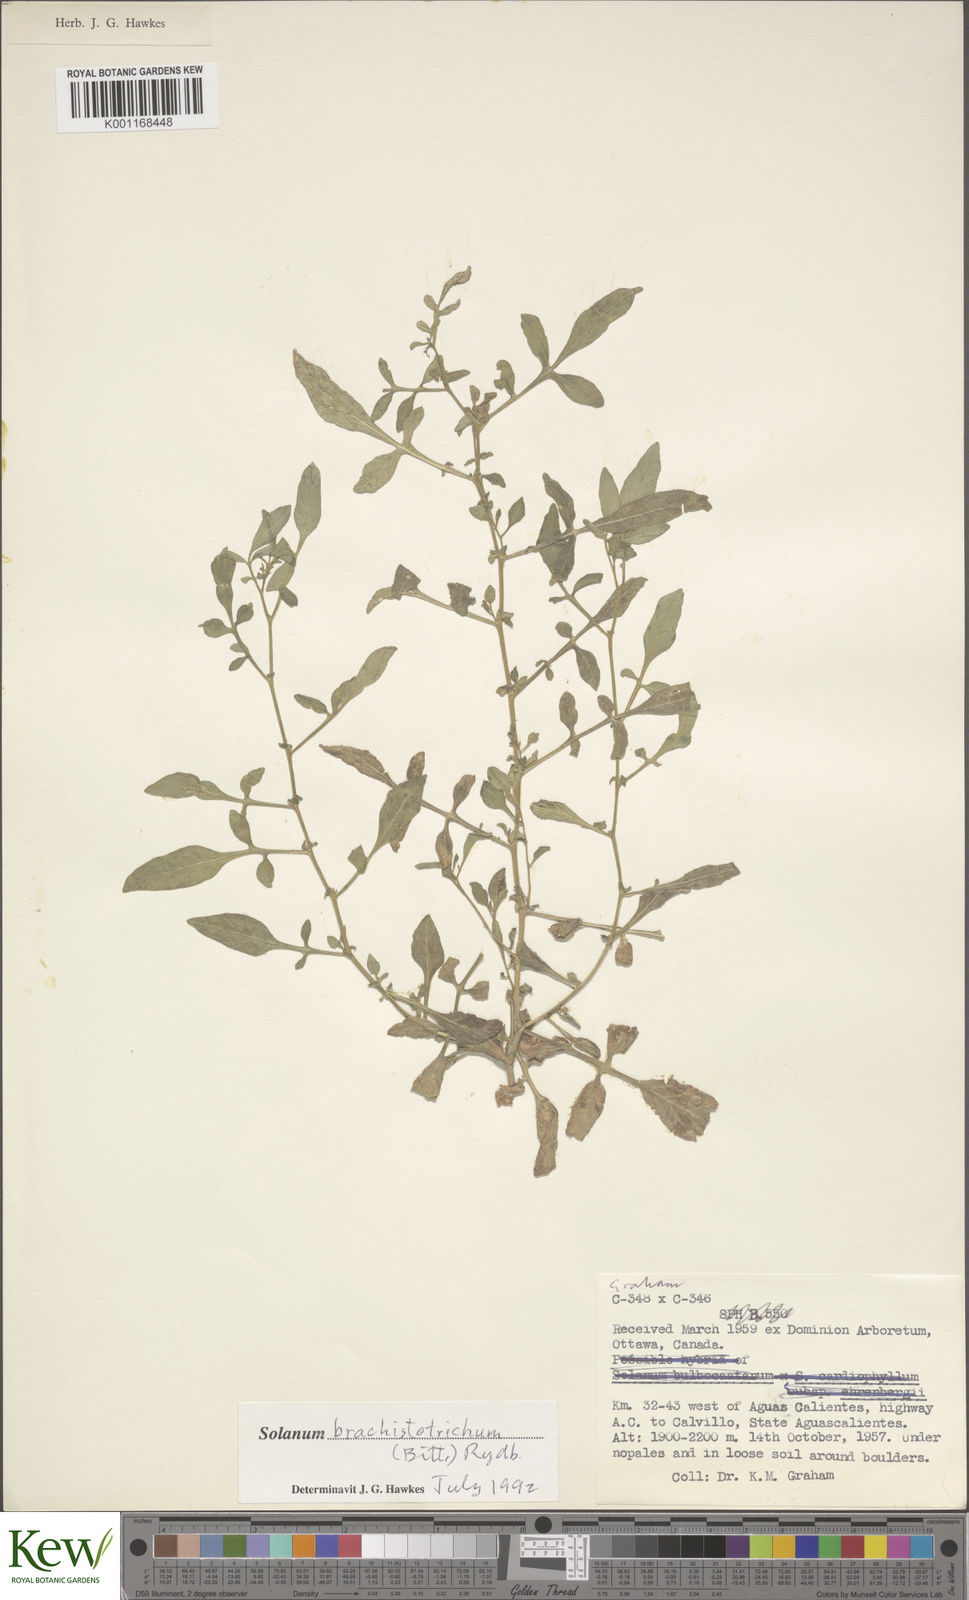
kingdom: Plantae
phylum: Tracheophyta
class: Magnoliopsida
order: Solanales
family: Solanaceae
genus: Solanum
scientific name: Solanum
